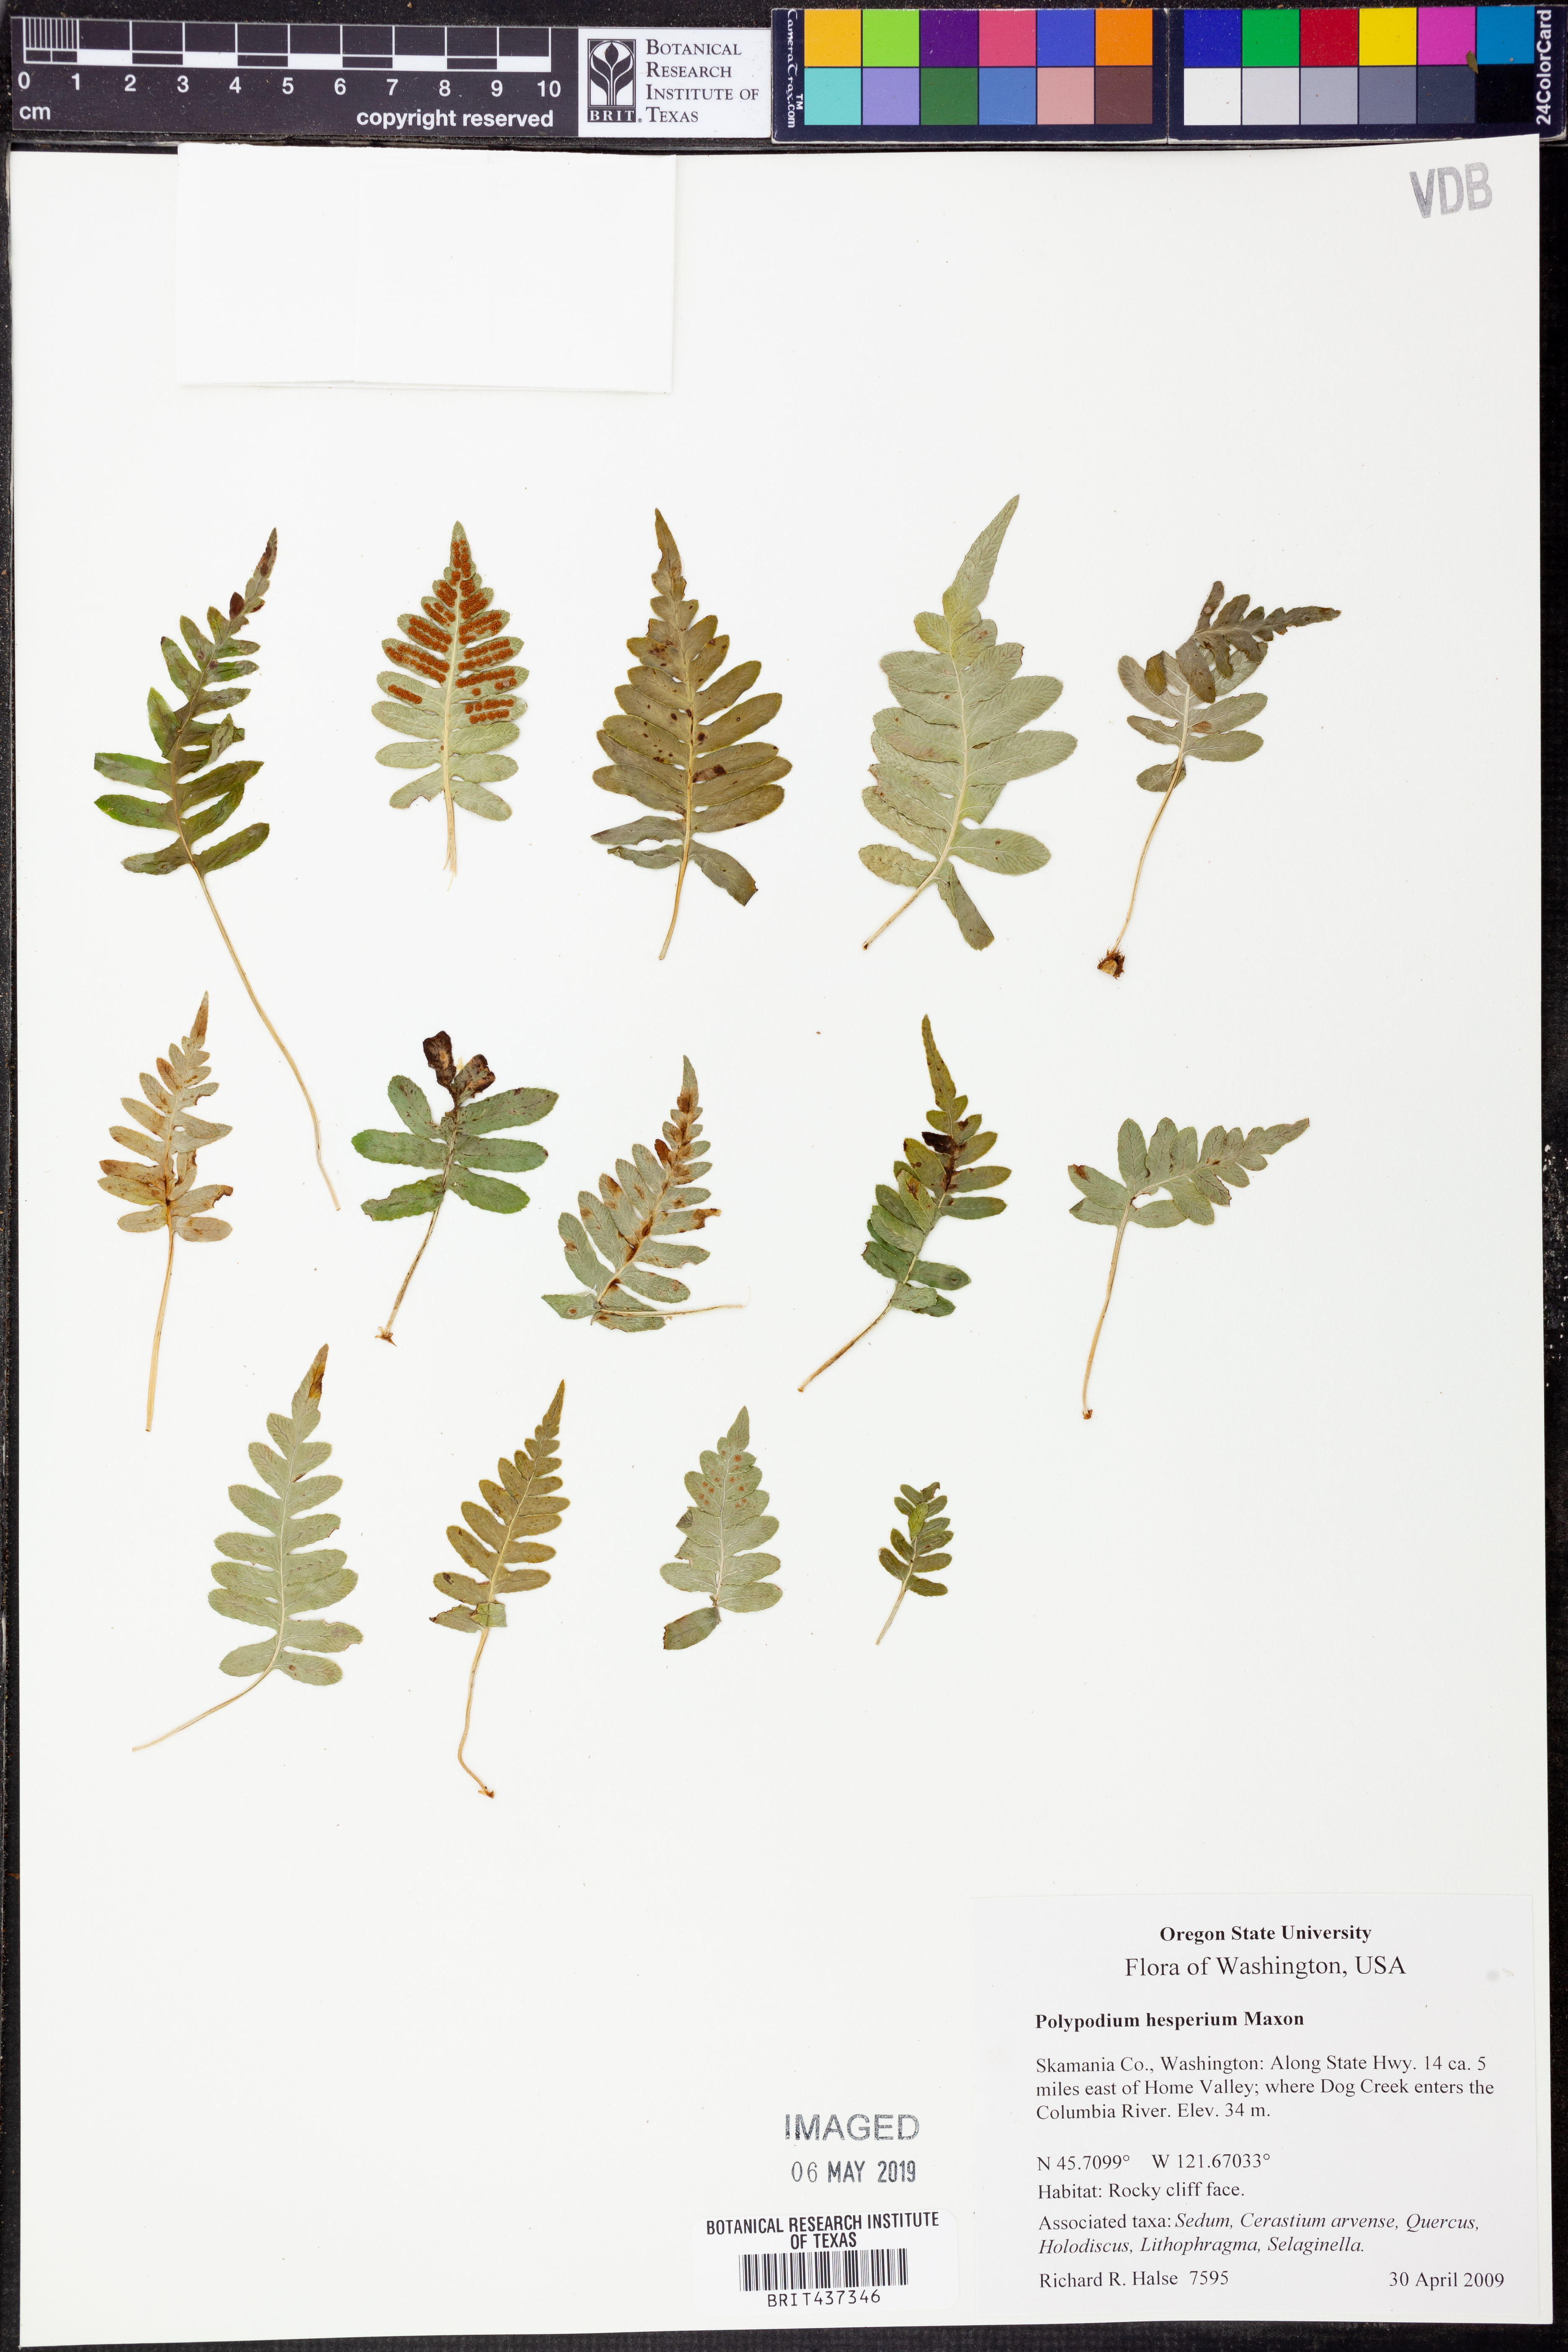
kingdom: Plantae
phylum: Tracheophyta
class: Polypodiopsida
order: Polypodiales
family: Polypodiaceae
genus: Polypodium
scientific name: Polypodium hesperium
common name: Western polypody
